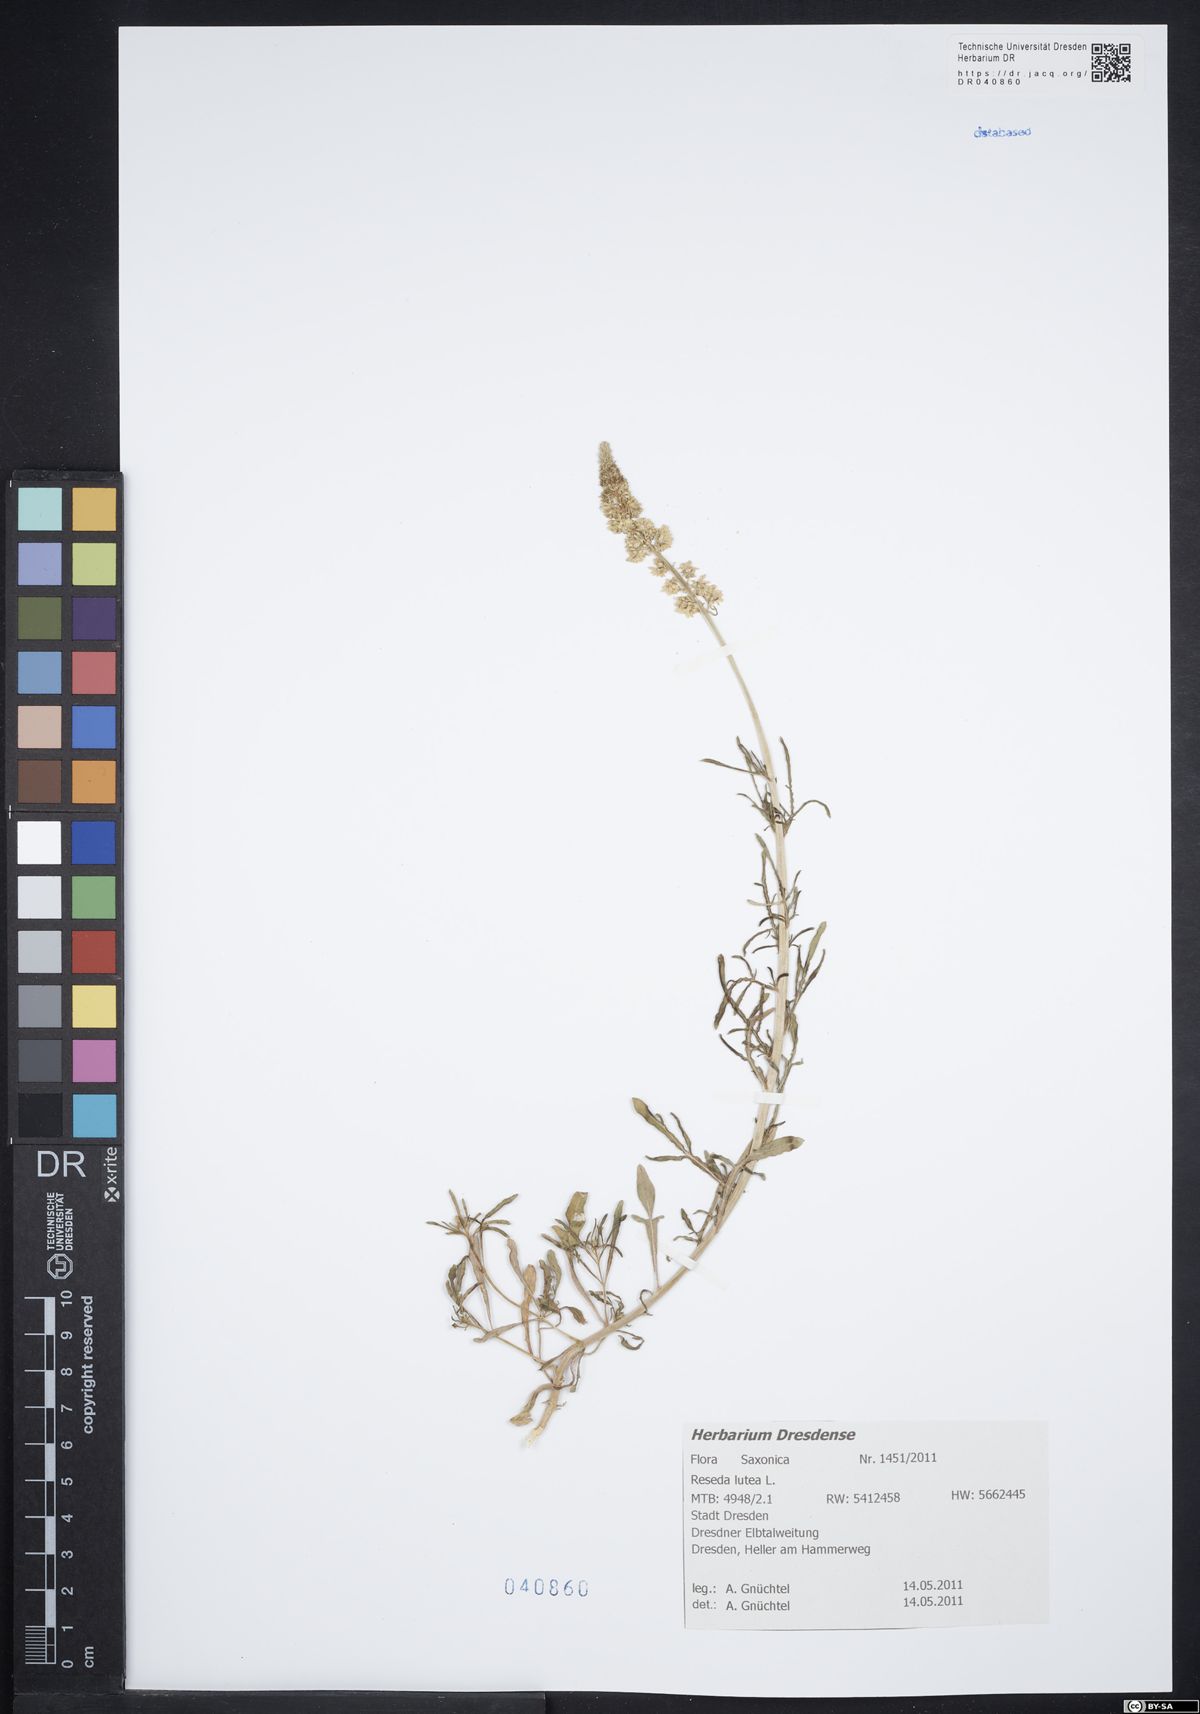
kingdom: Plantae
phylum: Tracheophyta
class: Magnoliopsida
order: Brassicales
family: Resedaceae
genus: Reseda
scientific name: Reseda lutea
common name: Wild mignonette
